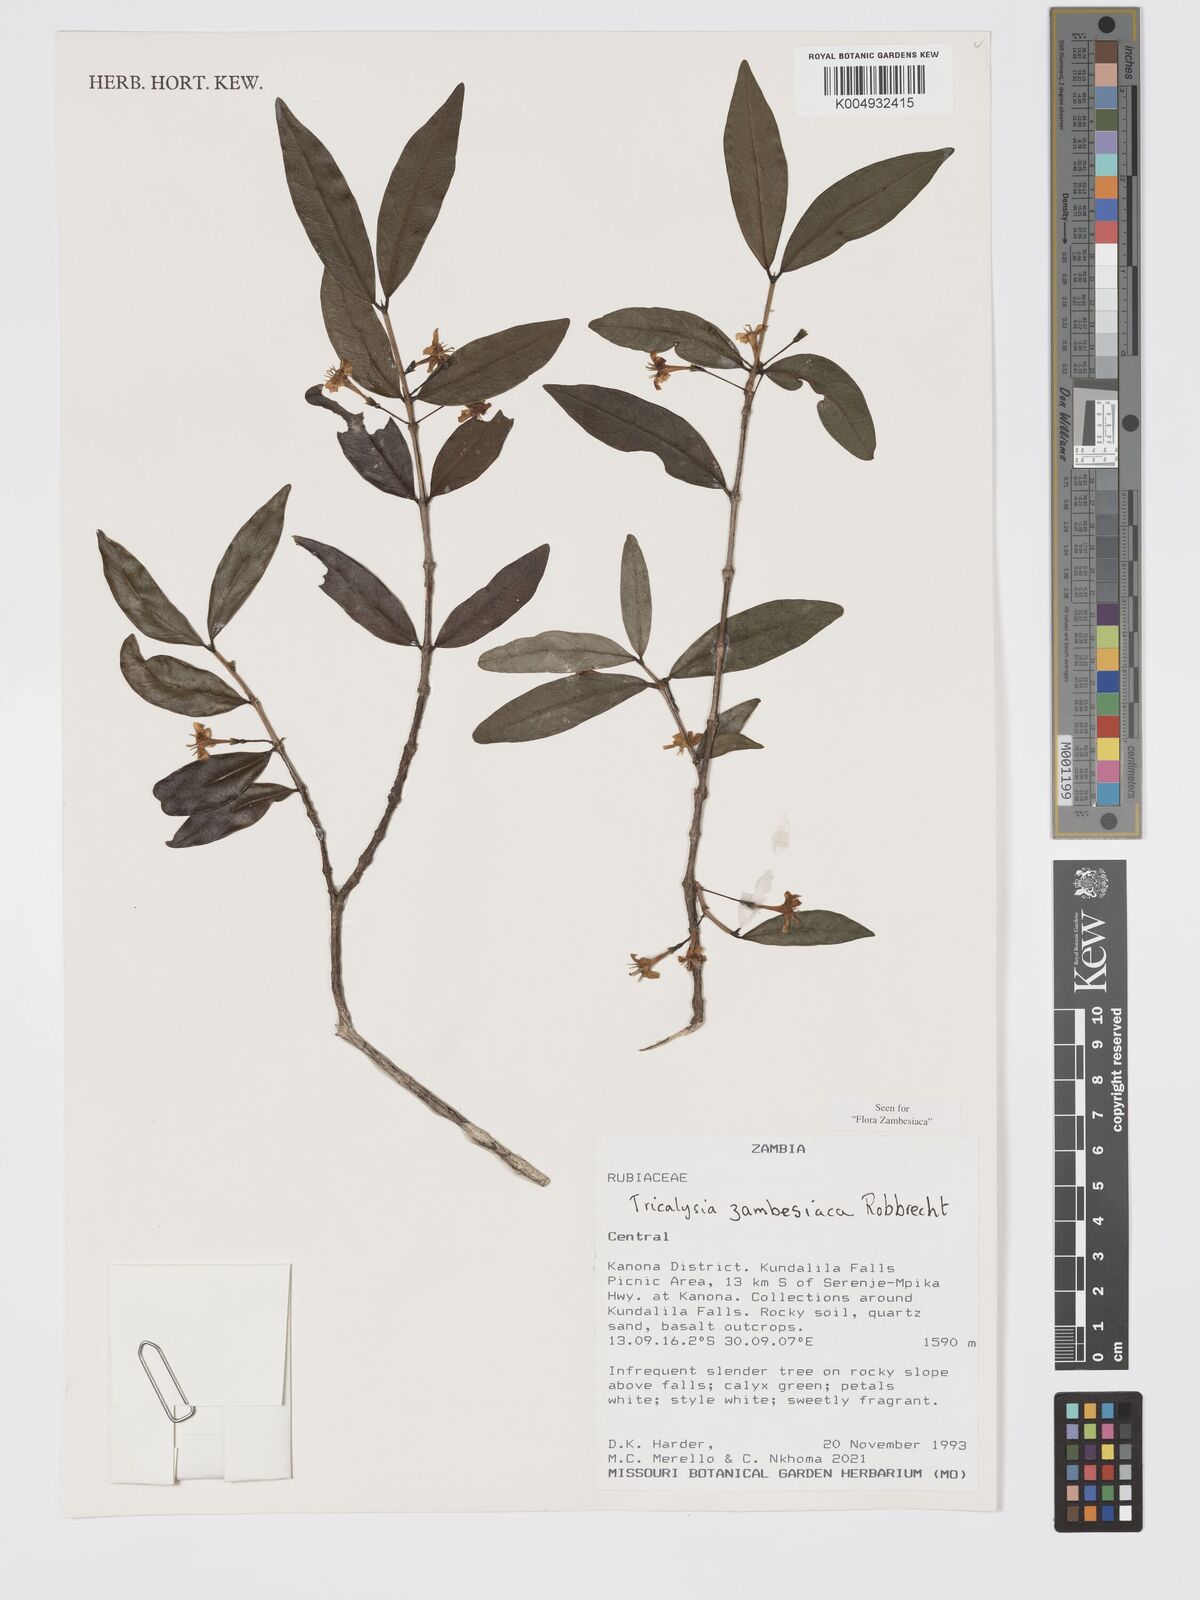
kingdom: Plantae
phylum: Tracheophyta
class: Magnoliopsida
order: Gentianales
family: Rubiaceae
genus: Tricalysia
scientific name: Tricalysia
